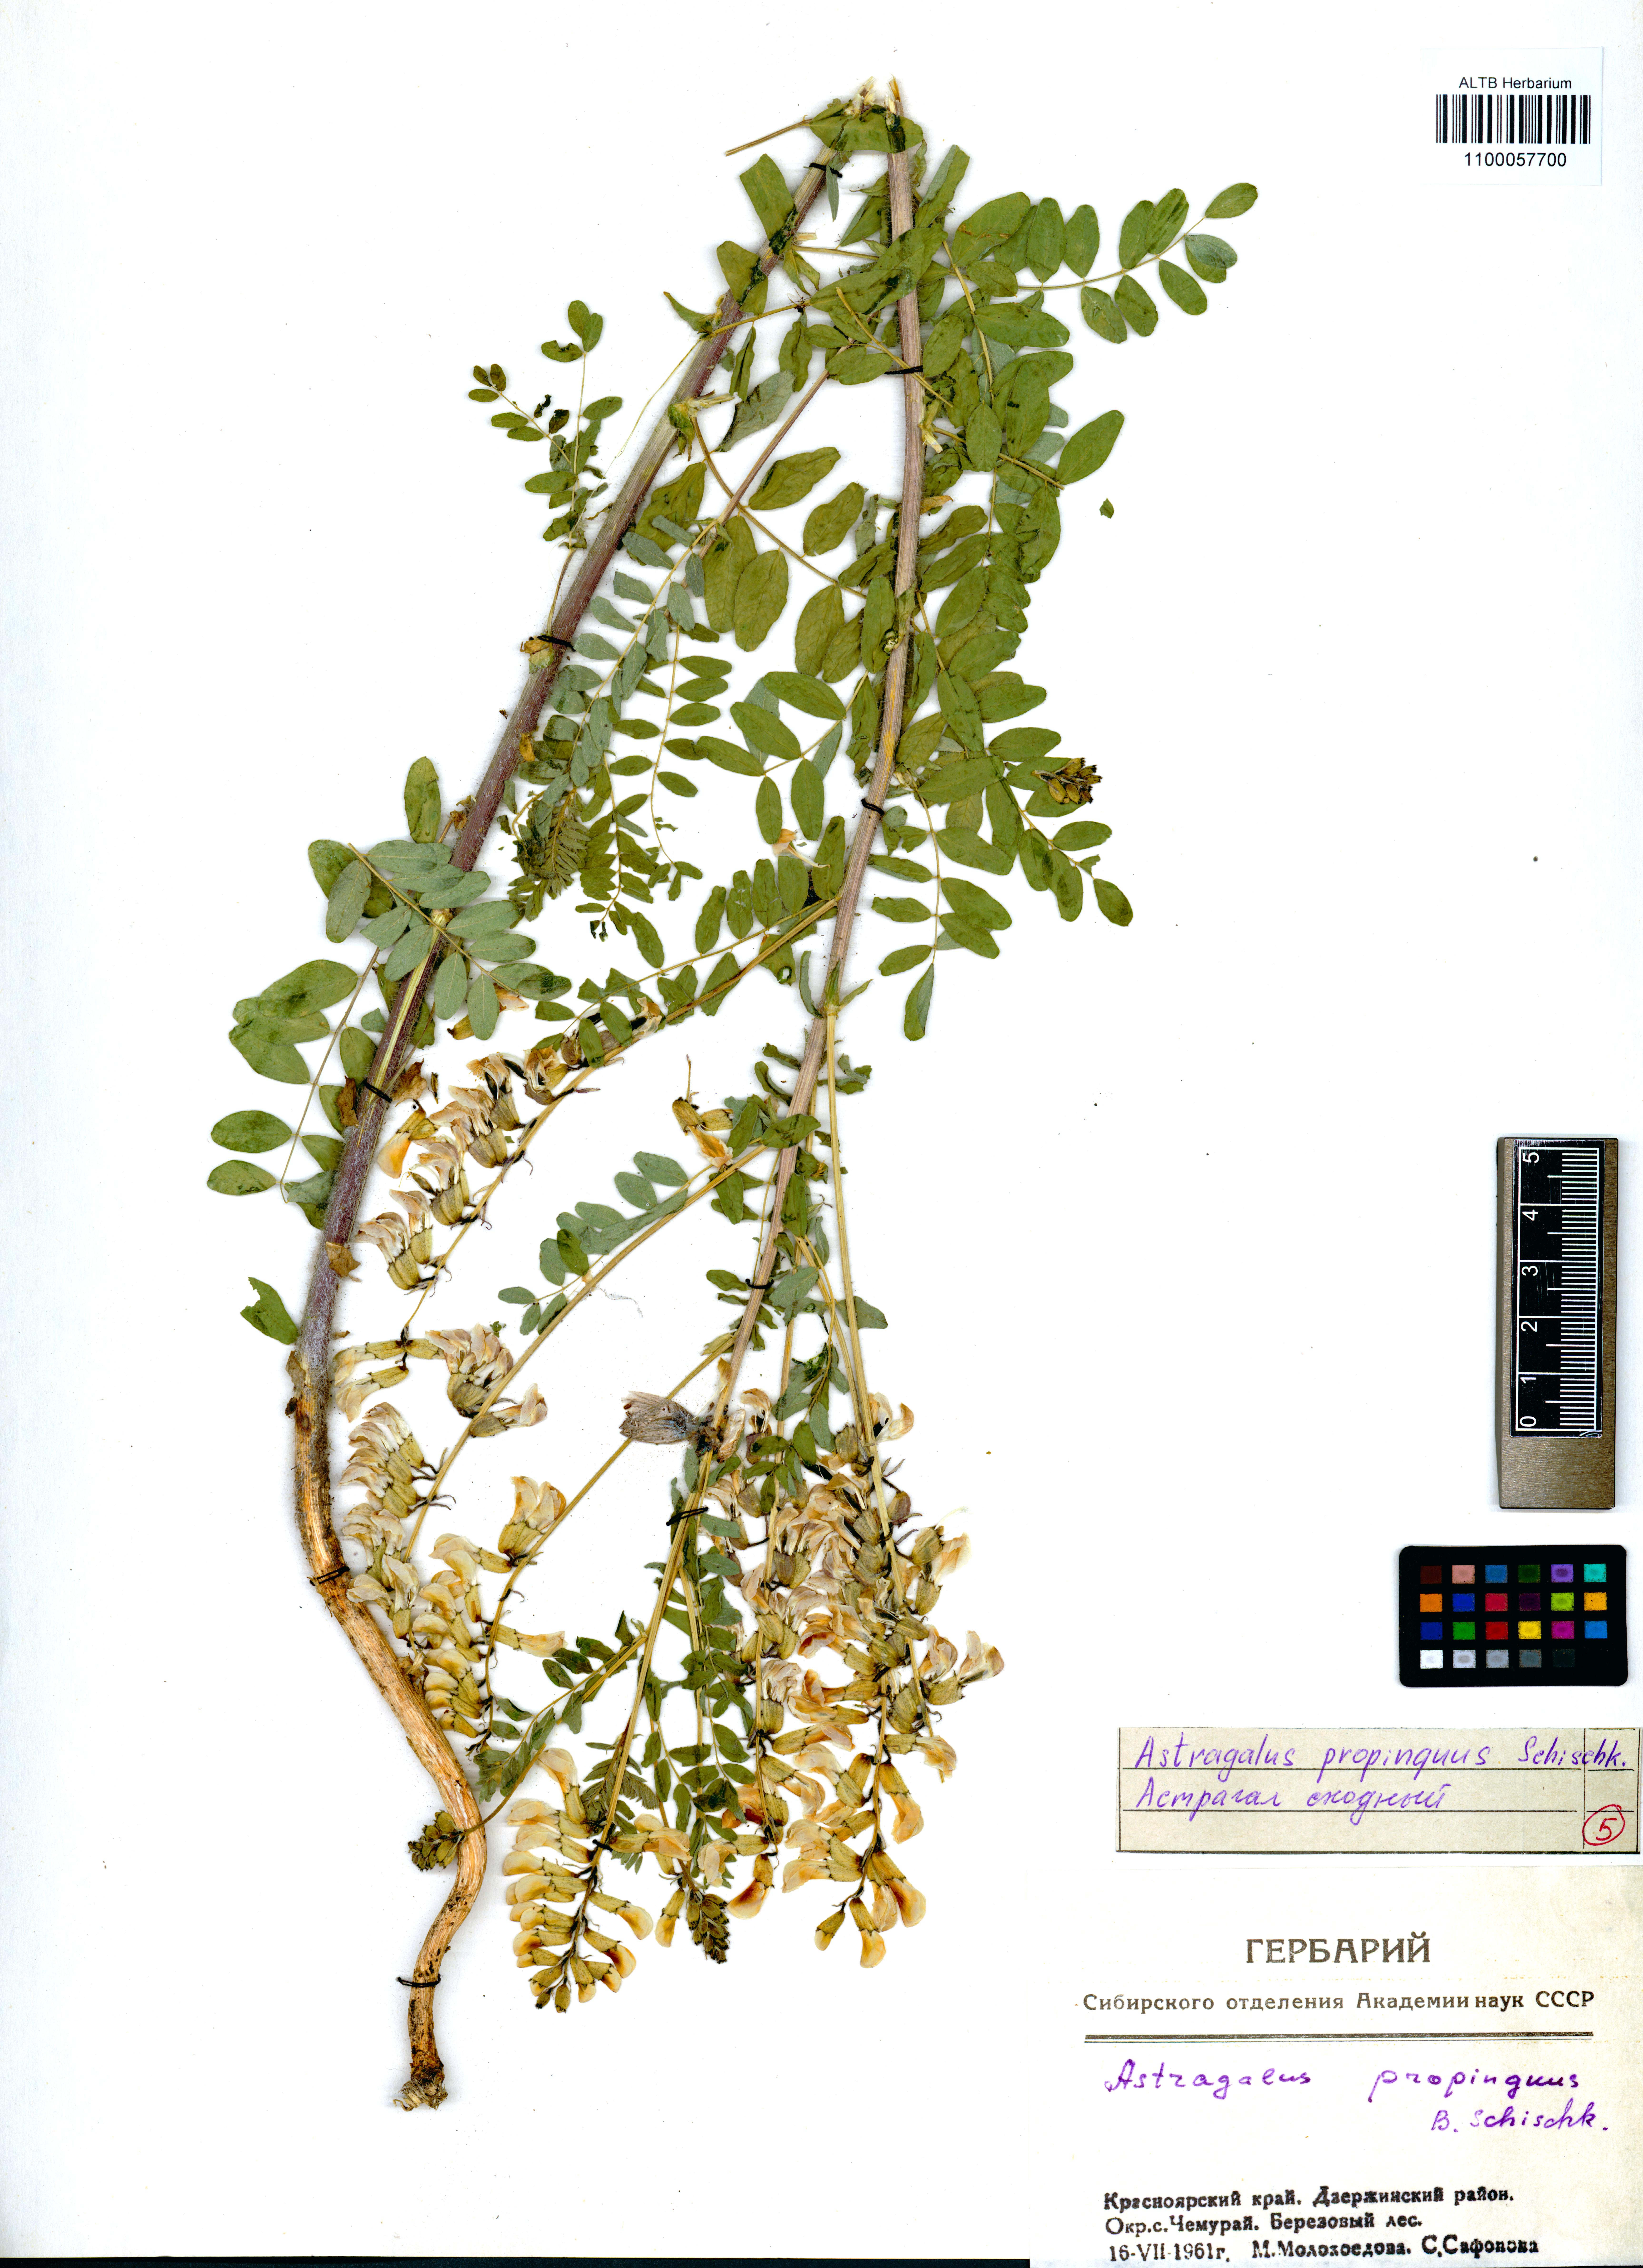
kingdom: Plantae
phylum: Tracheophyta
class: Magnoliopsida
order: Fabales
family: Fabaceae
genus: Astragalus
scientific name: Astragalus mongholicus
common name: Membranous milk-vetch
